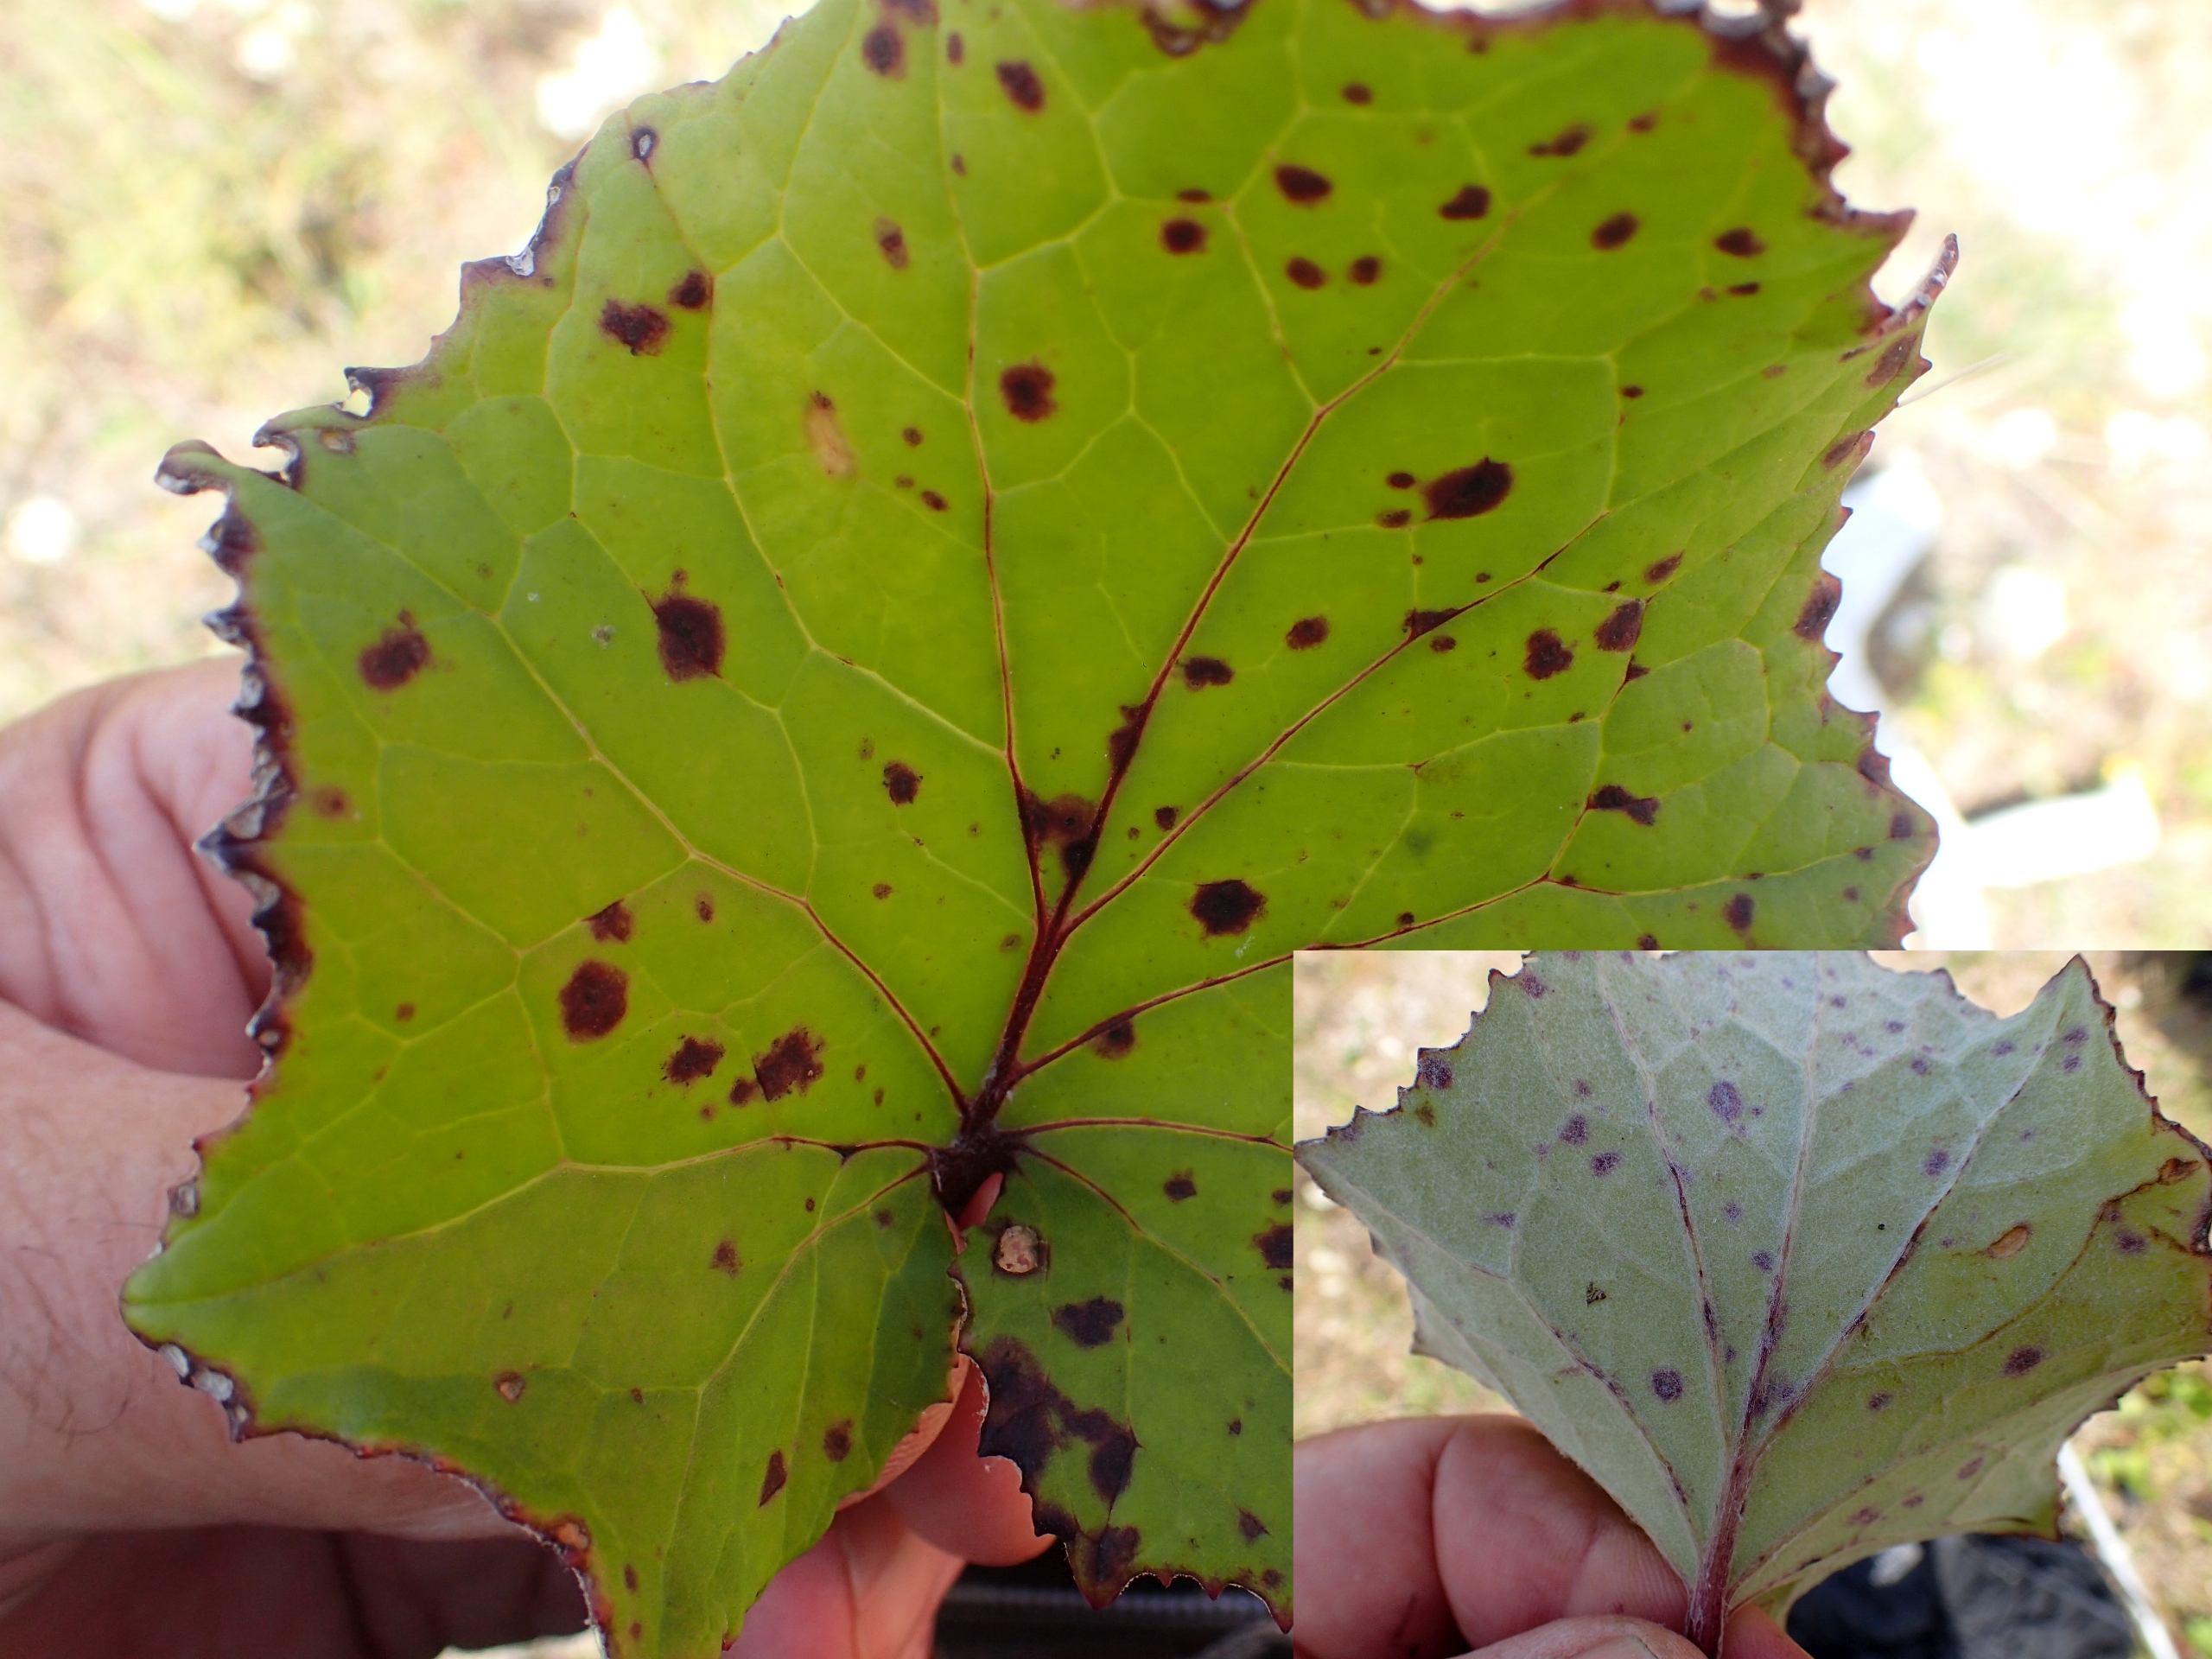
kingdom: Plantae
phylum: Tracheophyta
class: Magnoliopsida
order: Asterales
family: Asteraceae
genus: Tussilago
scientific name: Tussilago farfara
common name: Følfod
